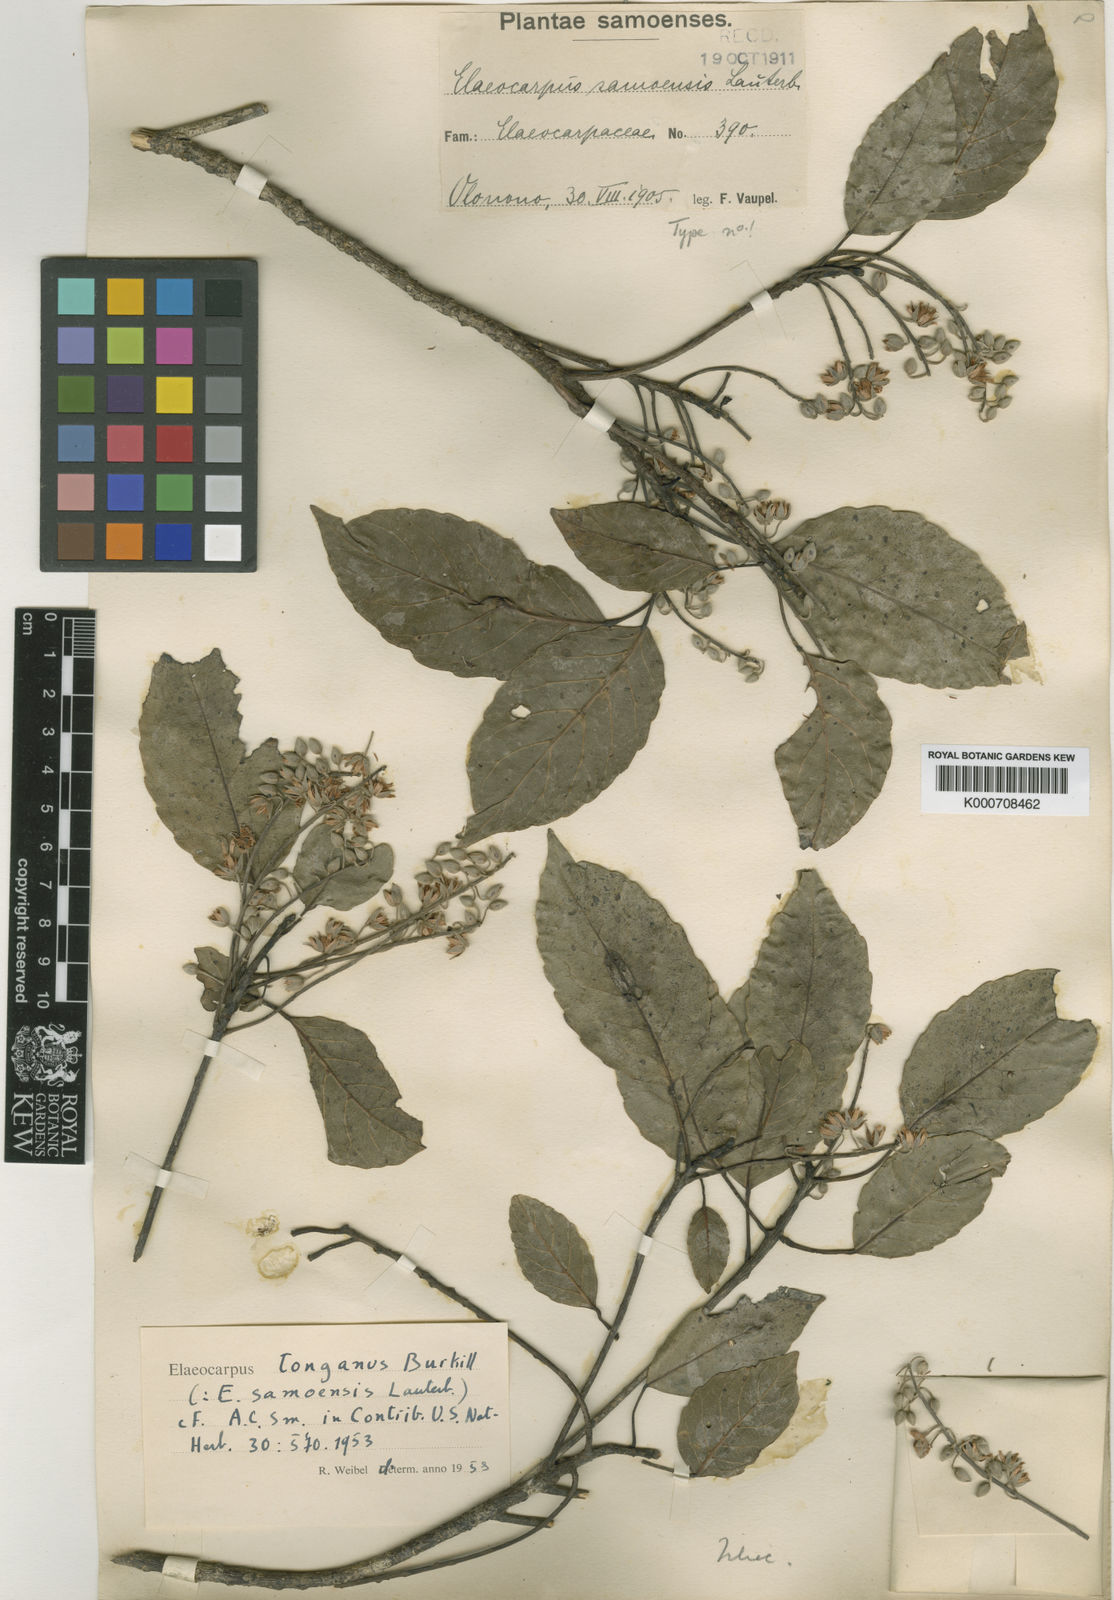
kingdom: Plantae
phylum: Tracheophyta
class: Magnoliopsida
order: Oxalidales
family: Elaeocarpaceae
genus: Elaeocarpus
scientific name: Elaeocarpus floridanus
